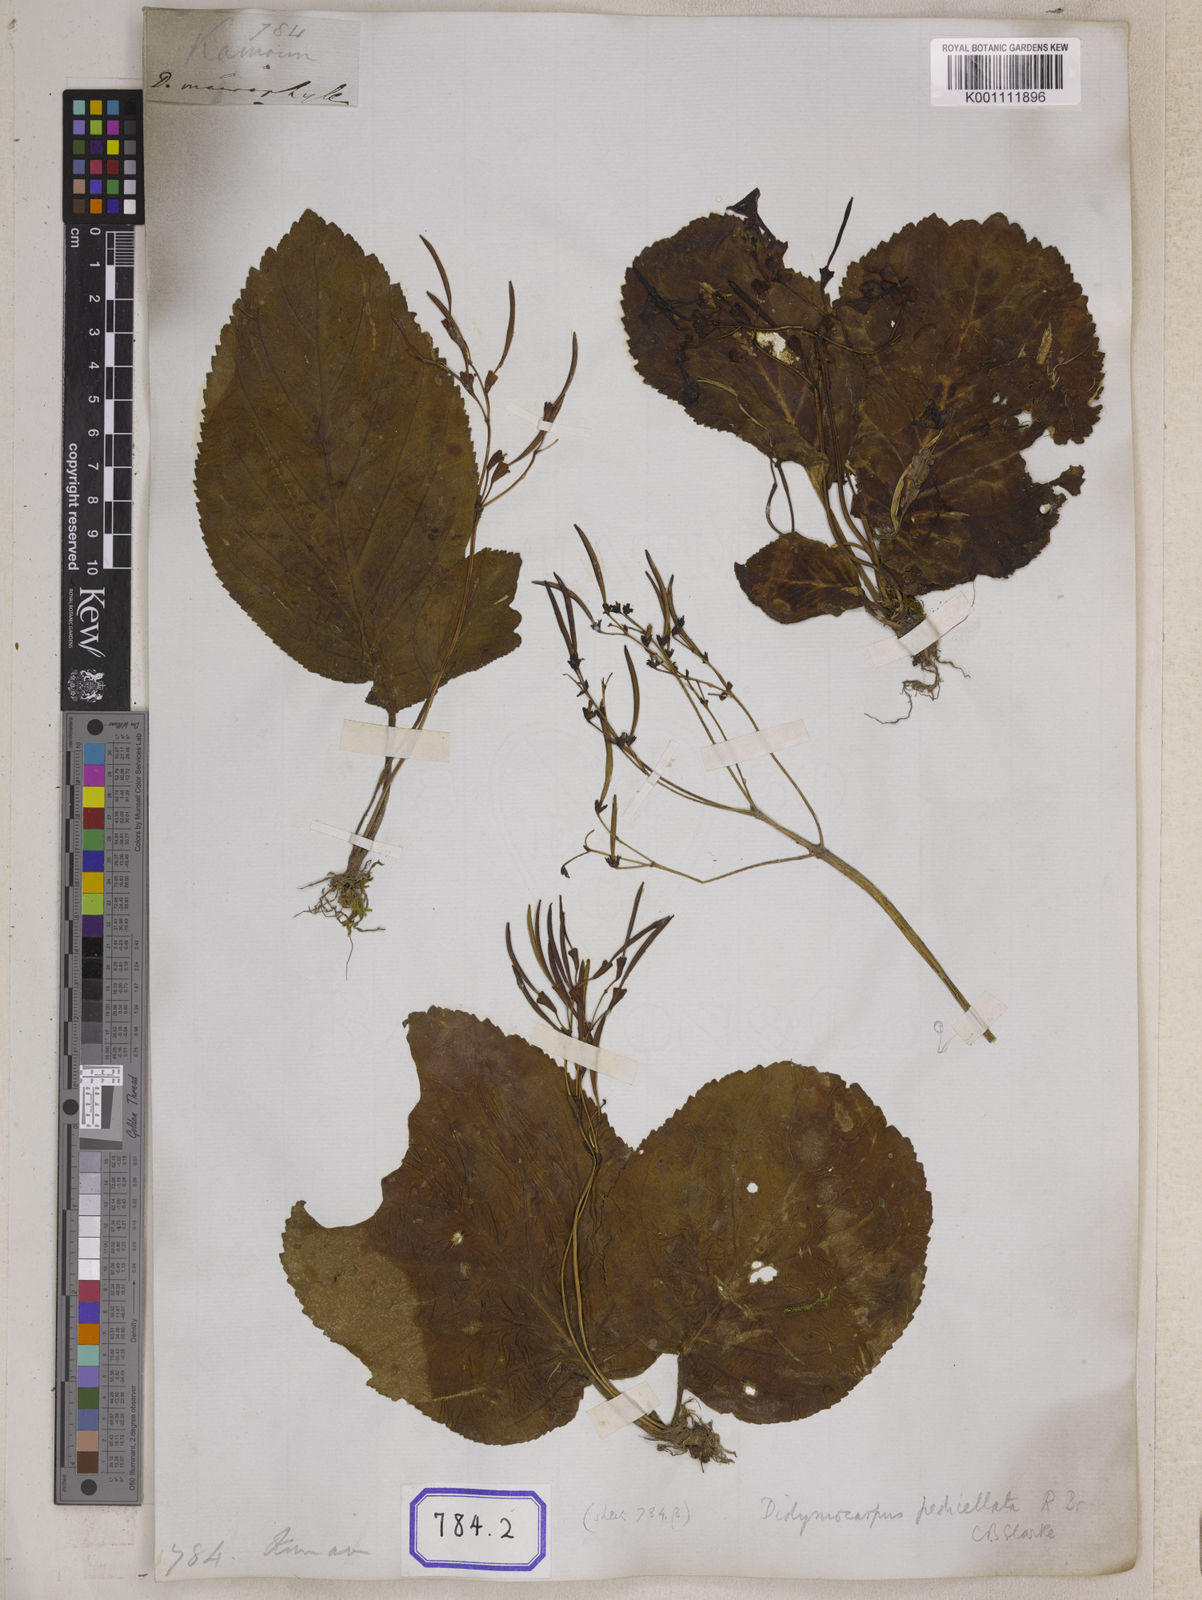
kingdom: Plantae
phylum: Tracheophyta
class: Magnoliopsida
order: Lamiales
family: Gesneriaceae
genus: Didymocarpus
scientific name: Didymocarpus
